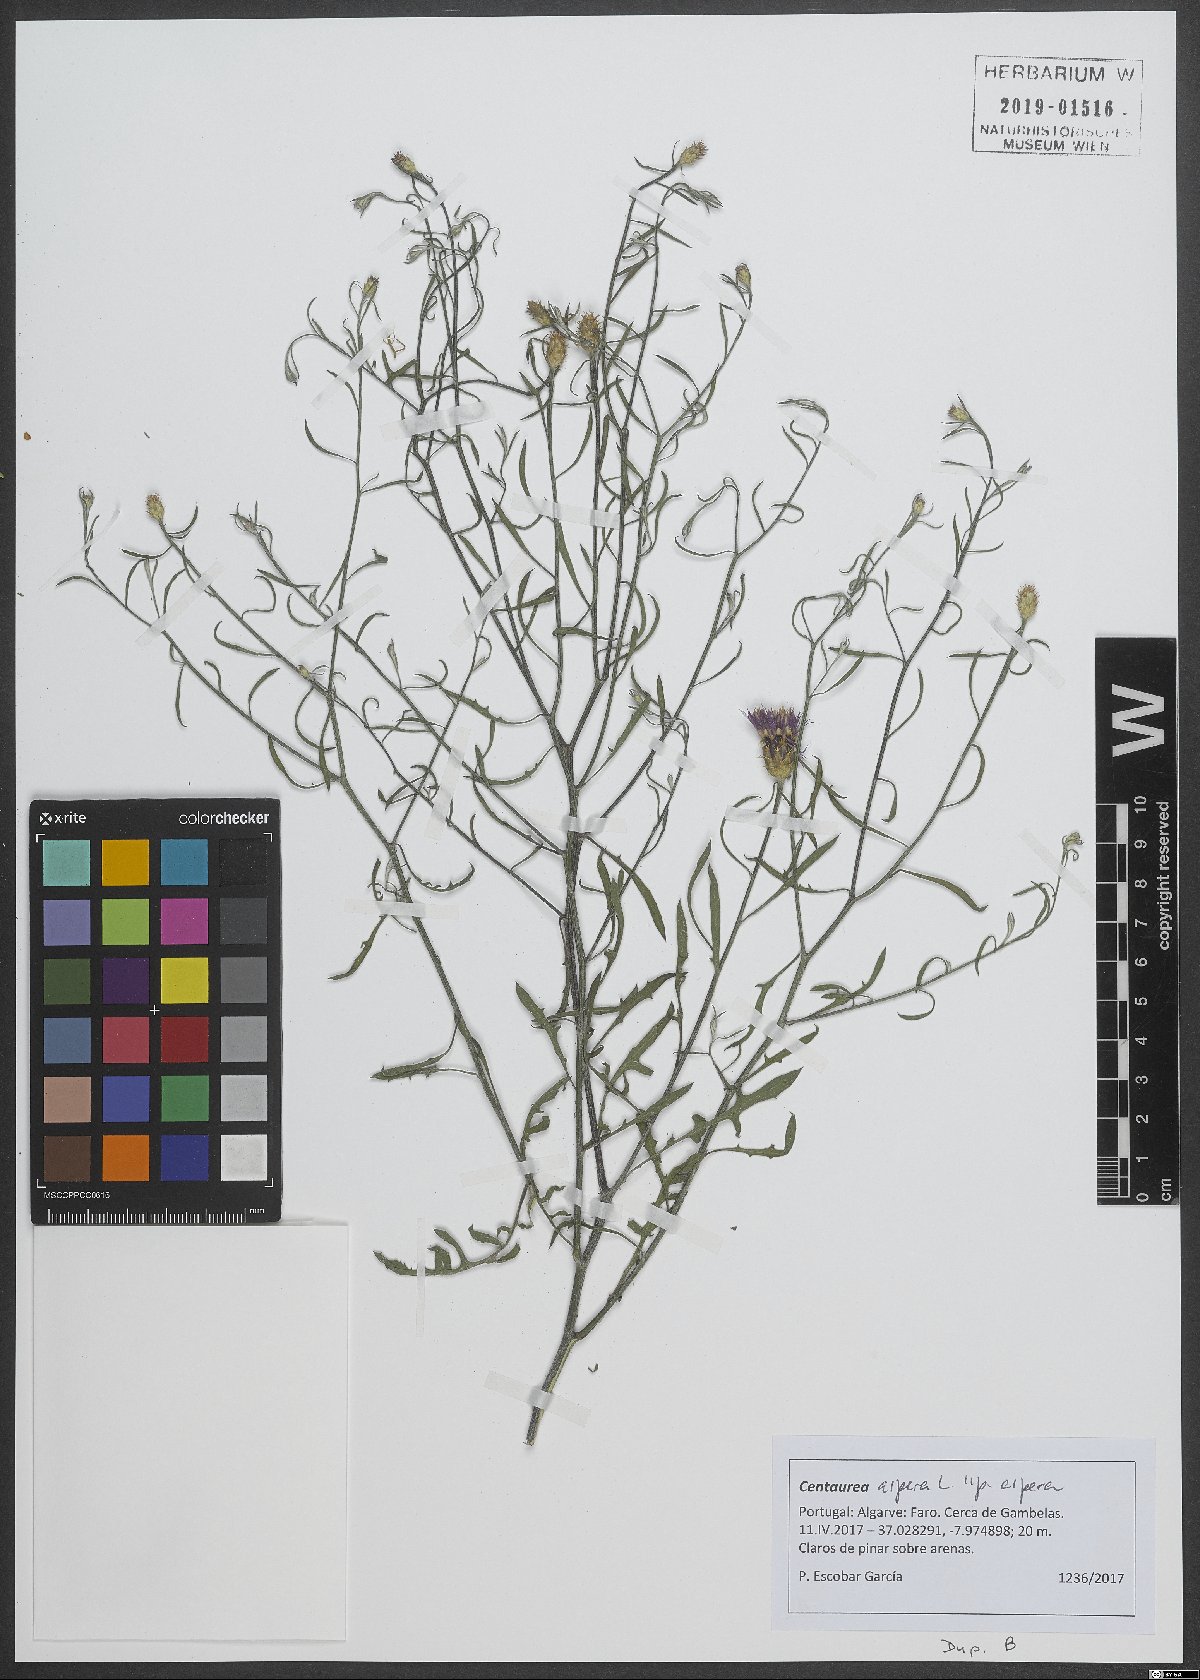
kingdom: Plantae
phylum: Tracheophyta
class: Magnoliopsida
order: Asterales
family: Asteraceae
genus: Centaurea
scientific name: Centaurea aspera
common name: Rough star-thistle
